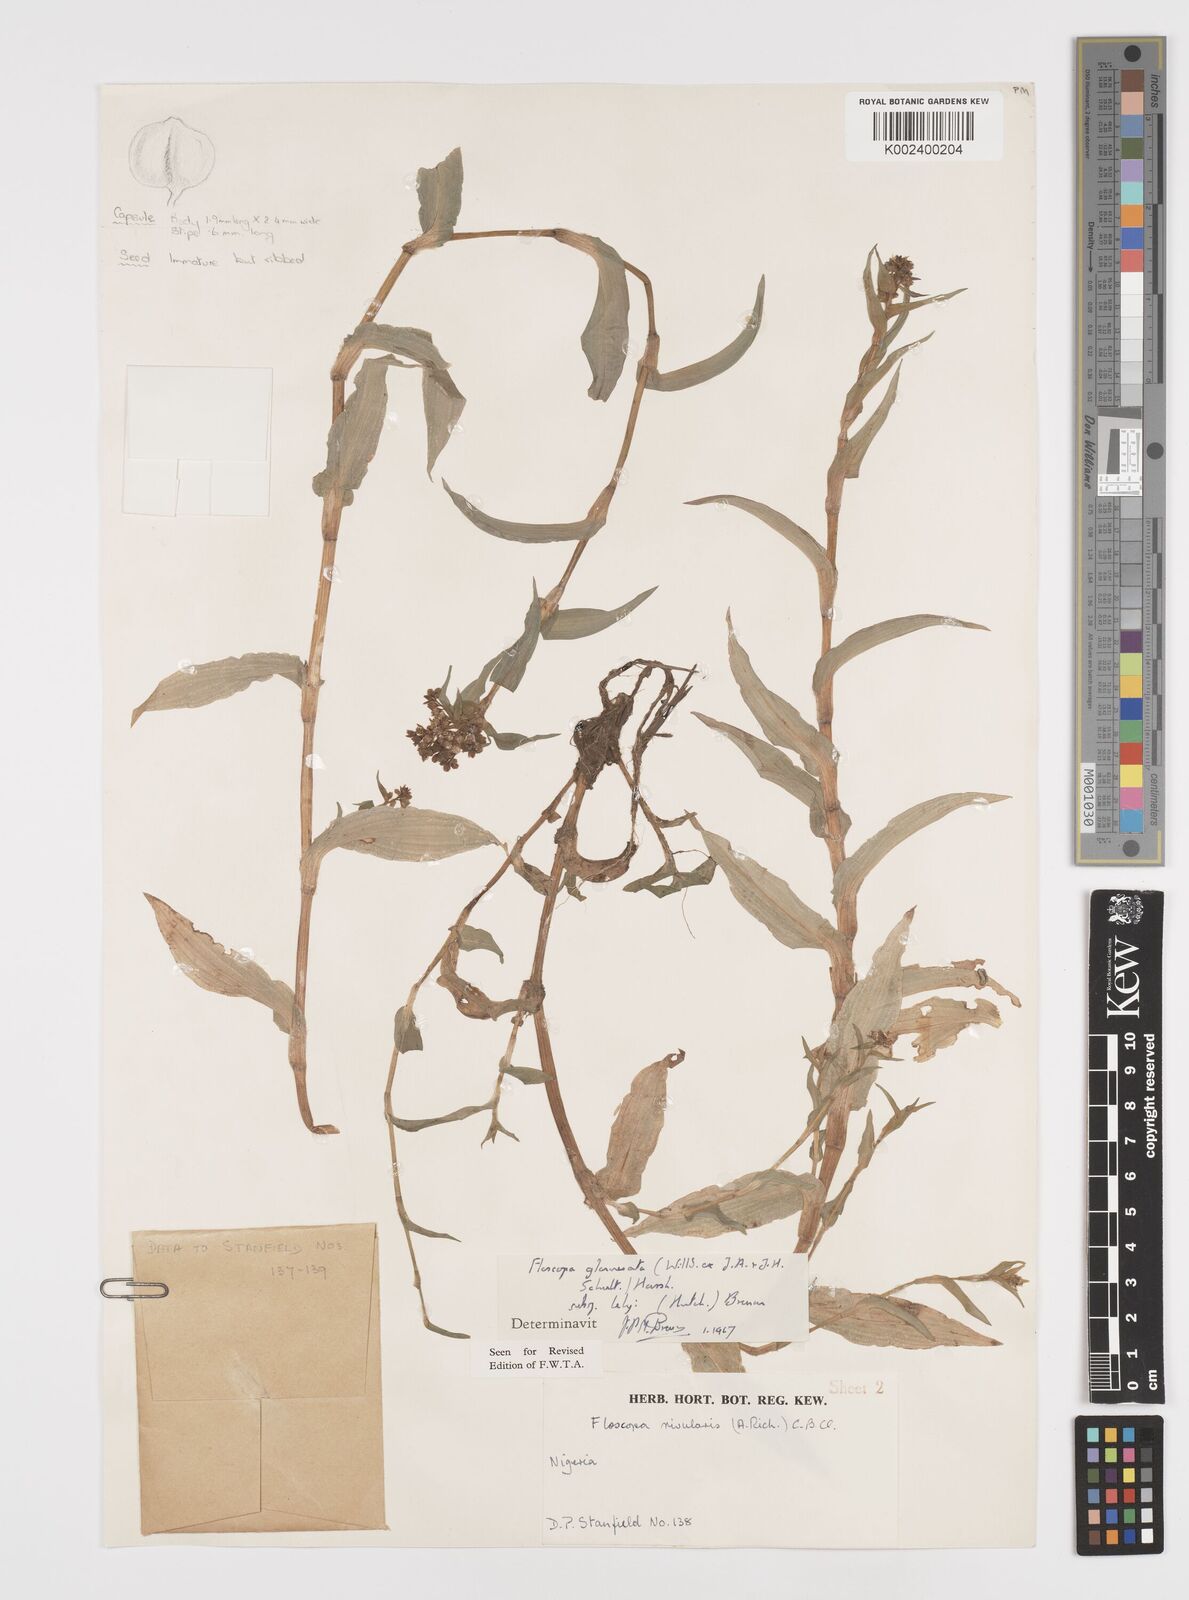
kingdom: Plantae
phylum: Tracheophyta
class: Liliopsida
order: Commelinales
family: Commelinaceae
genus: Floscopa
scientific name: Floscopa glomerata
